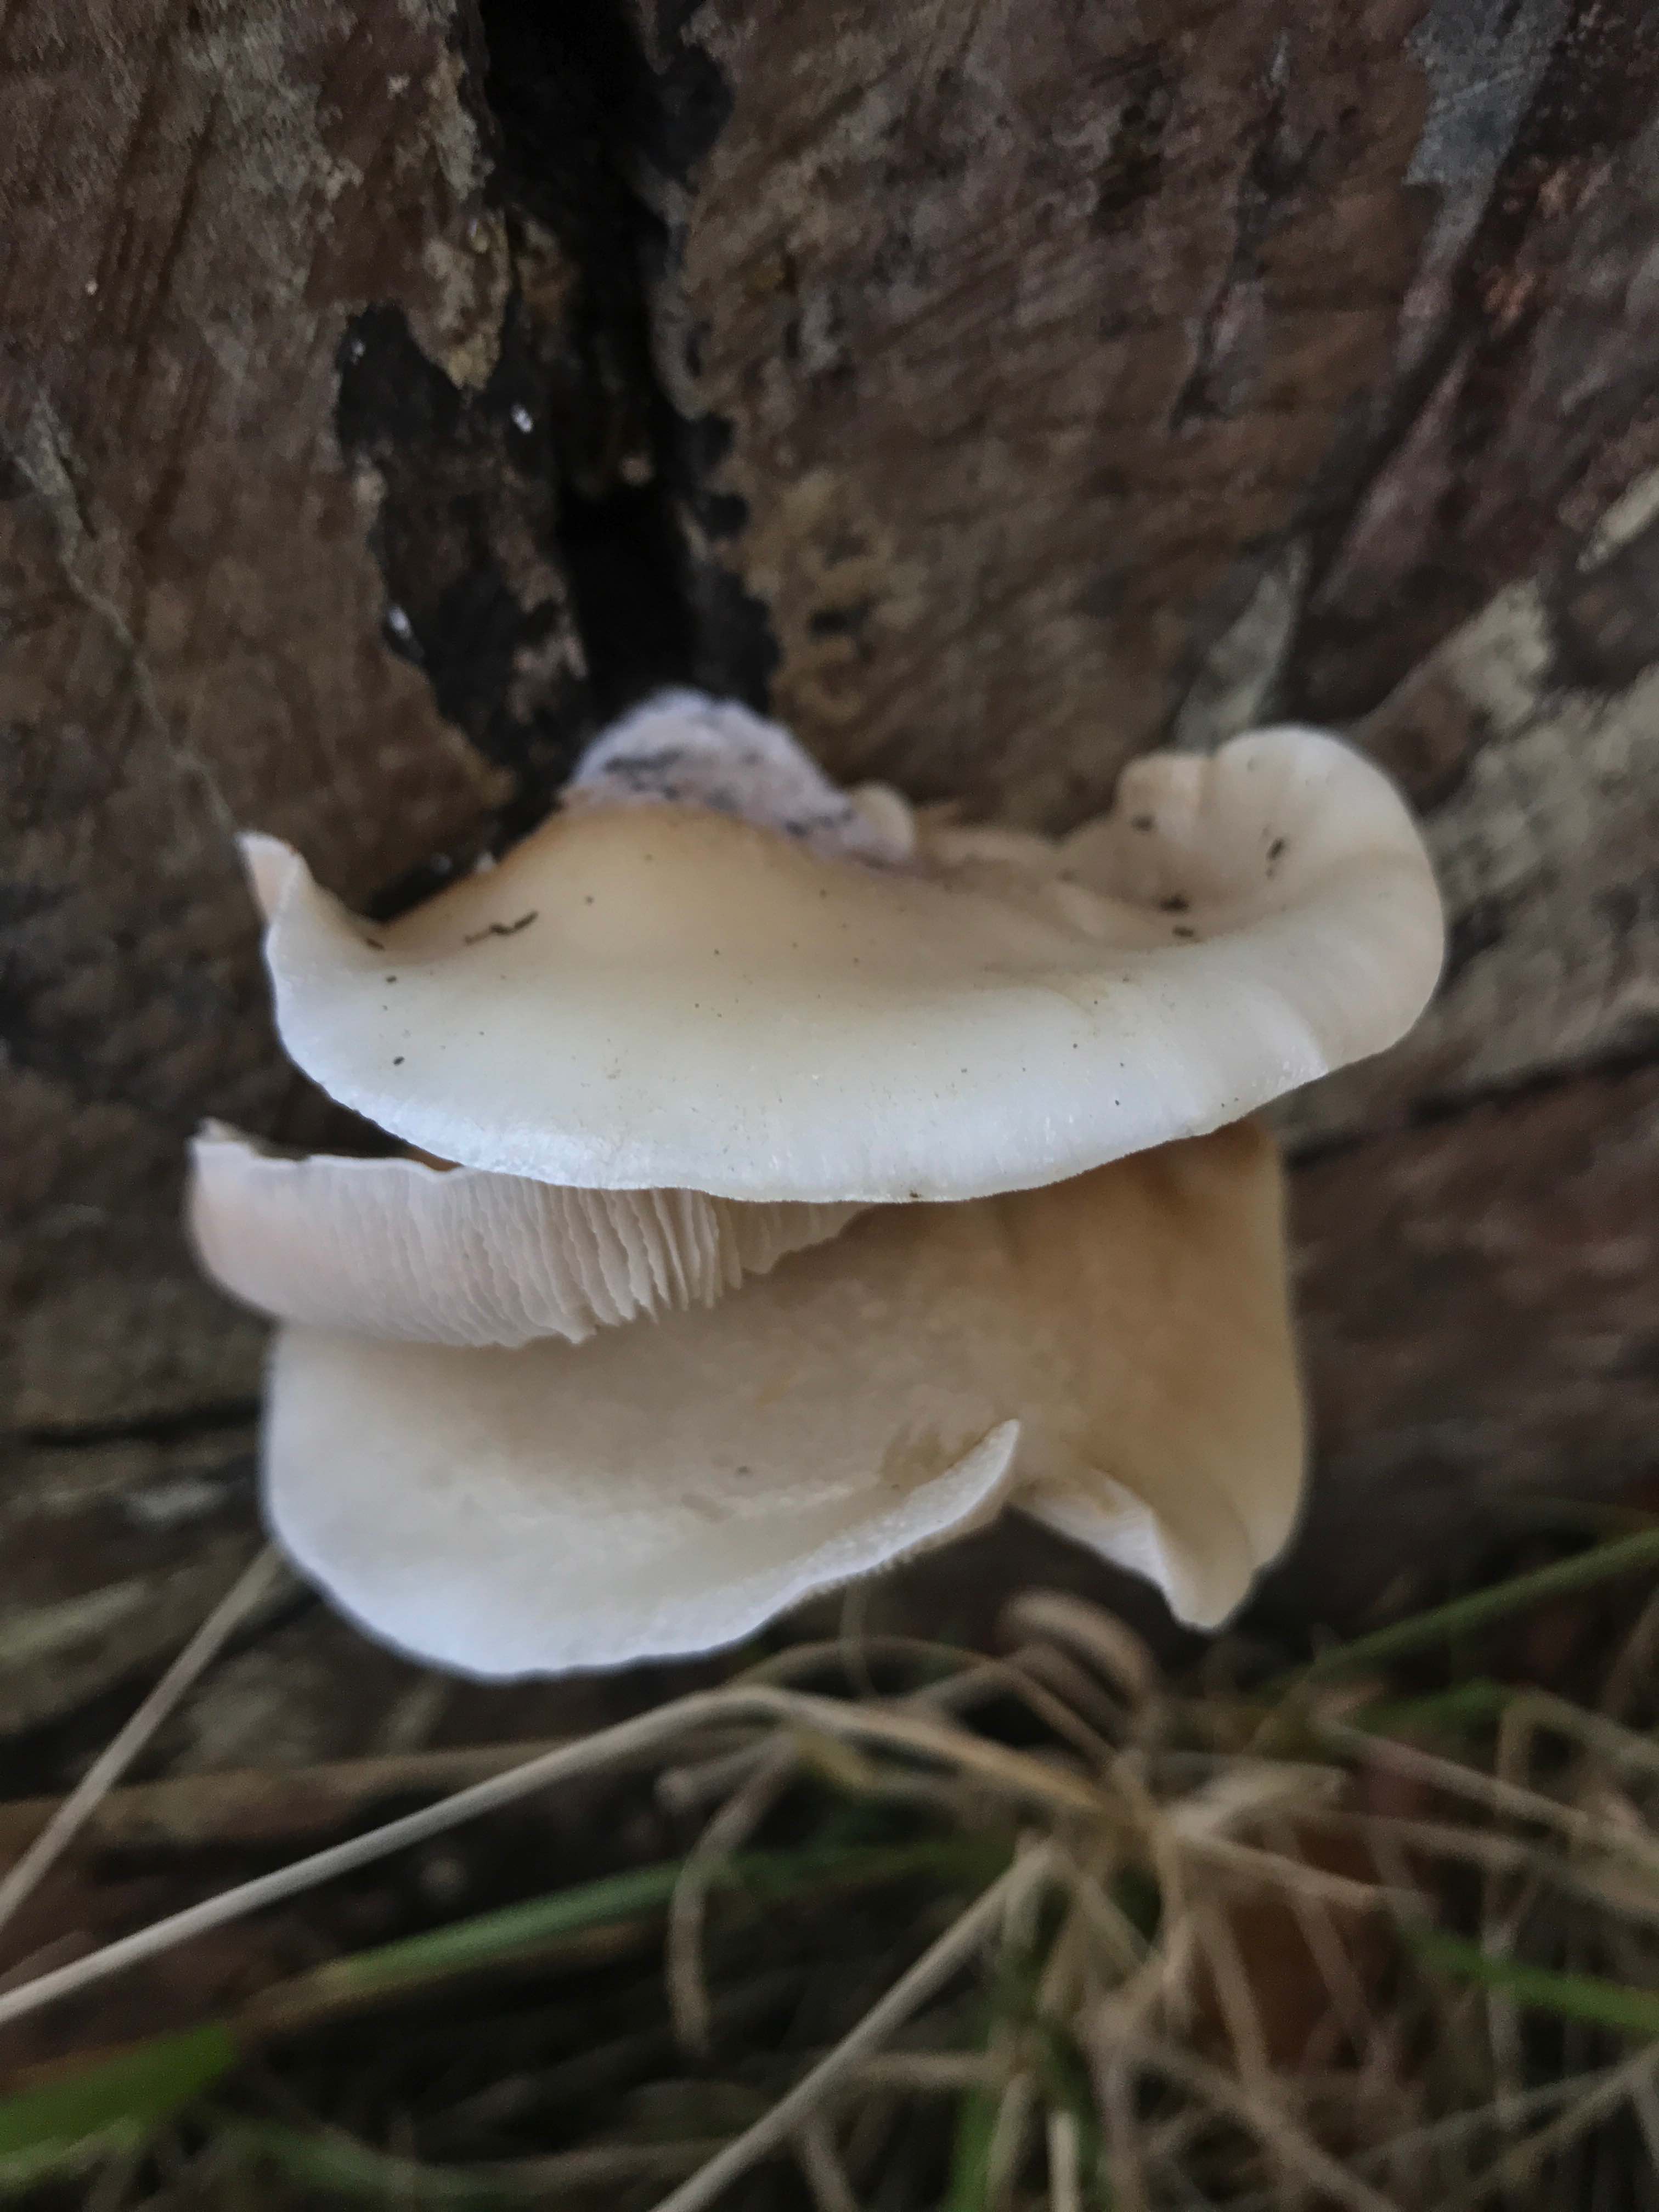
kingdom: Fungi
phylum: Basidiomycota
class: Agaricomycetes
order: Agaricales
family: Crepidotaceae
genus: Crepidotus
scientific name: Crepidotus mollis
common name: blød muslingesvamp
